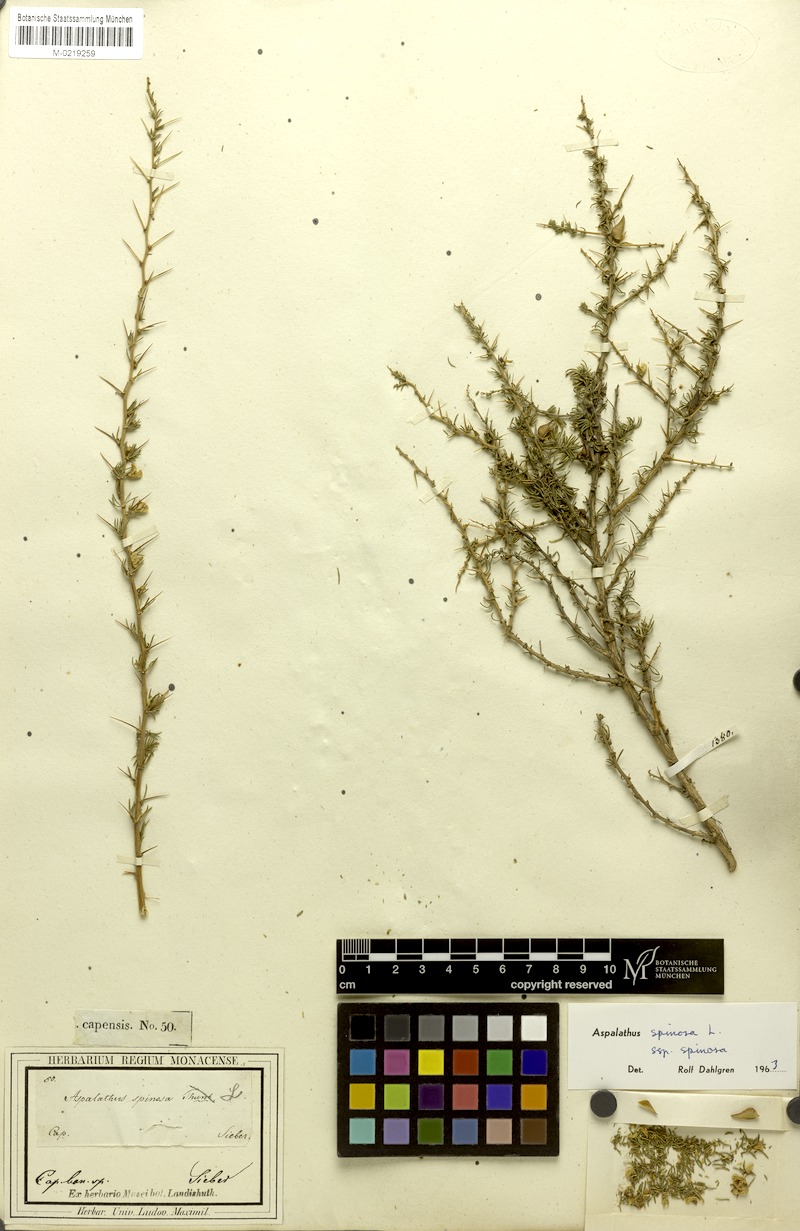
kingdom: Plantae
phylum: Tracheophyta
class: Magnoliopsida
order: Fabales
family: Fabaceae
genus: Aspalathus
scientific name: Aspalathus spinosa
